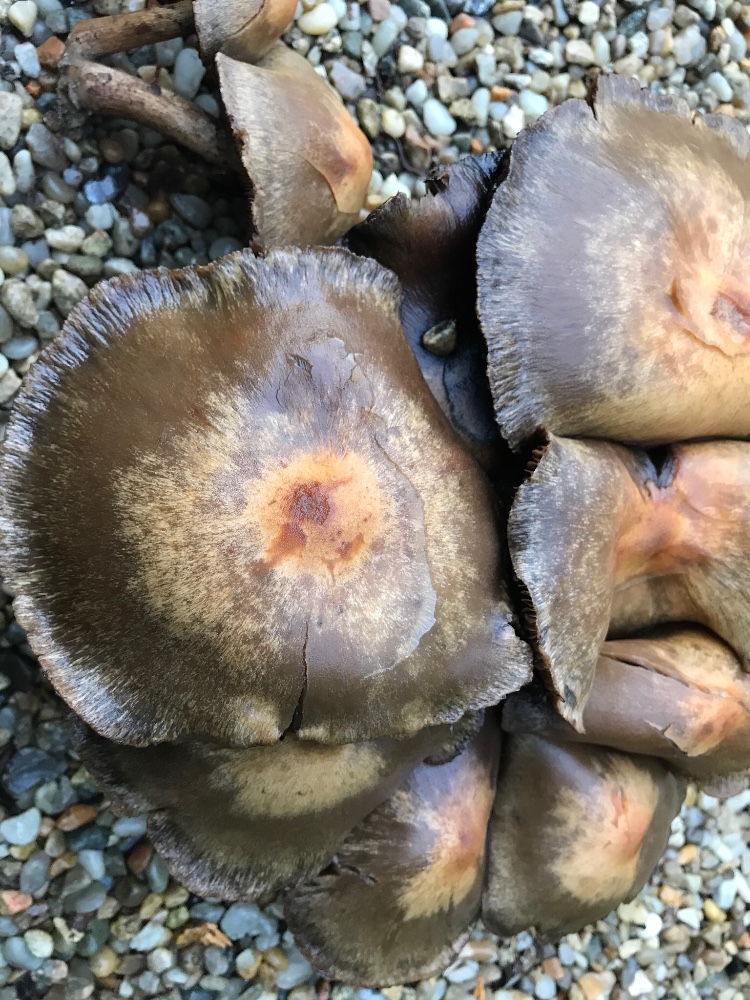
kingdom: Fungi
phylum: Basidiomycota
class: Agaricomycetes
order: Agaricales
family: Psathyrellaceae
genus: Lacrymaria
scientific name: Lacrymaria lacrymabunda
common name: grædende mørkhat
